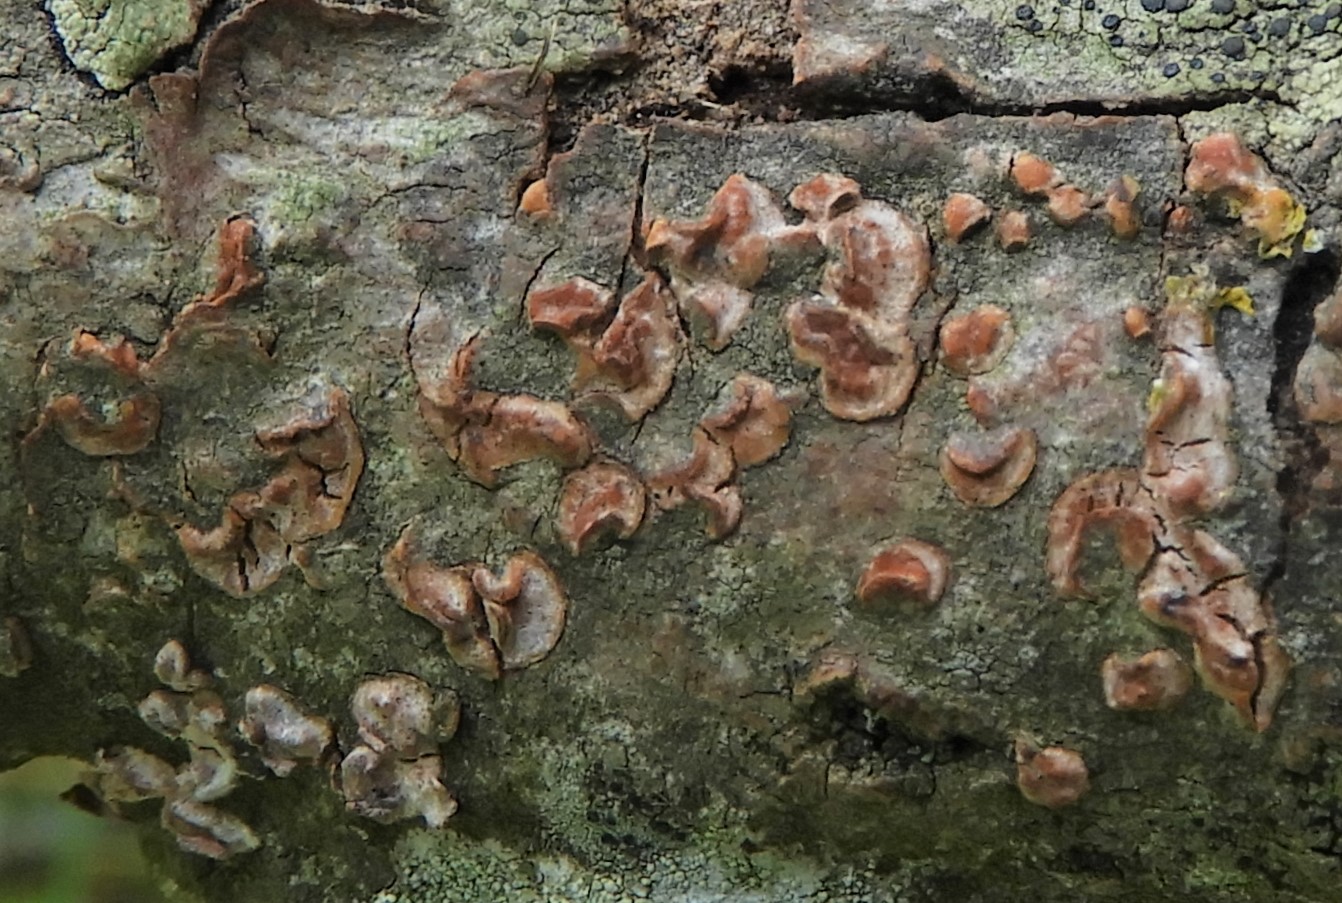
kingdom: Fungi
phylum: Basidiomycota
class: Agaricomycetes
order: Russulales
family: Peniophoraceae
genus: Peniophora
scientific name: Peniophora polygonia
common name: polygon-voksskind
